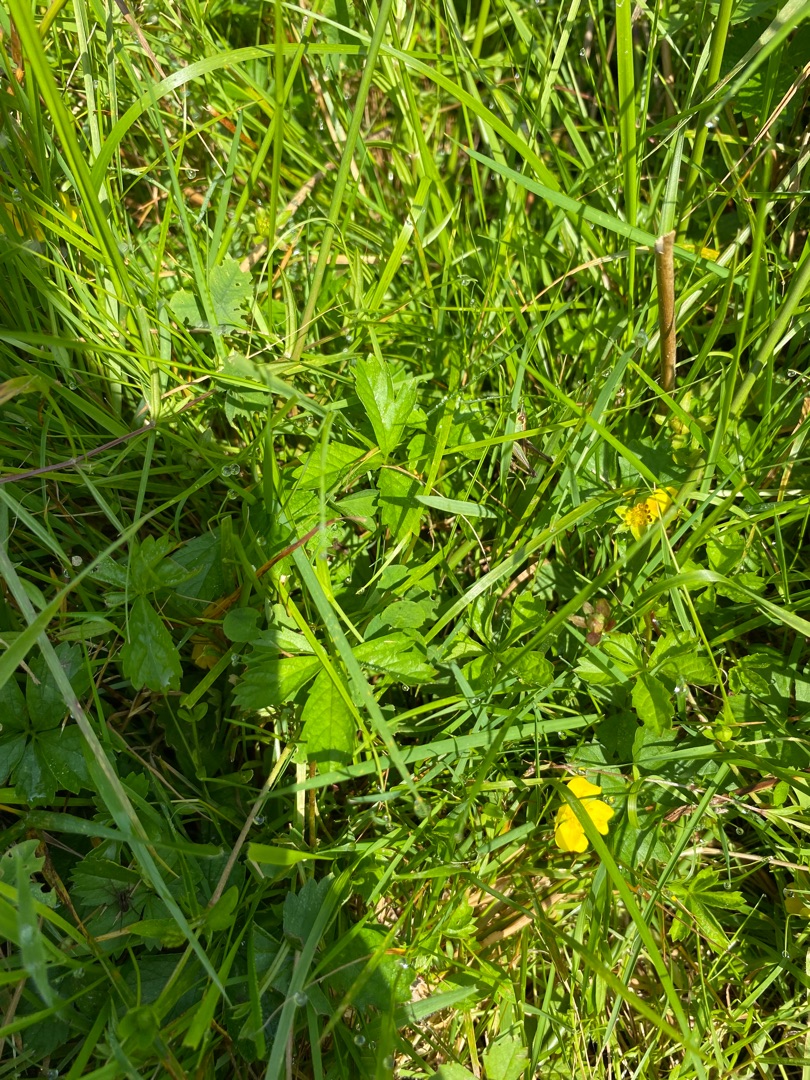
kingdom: Plantae
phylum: Tracheophyta
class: Magnoliopsida
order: Rosales
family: Rosaceae
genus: Potentilla
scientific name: Potentilla erecta
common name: Tormentil
